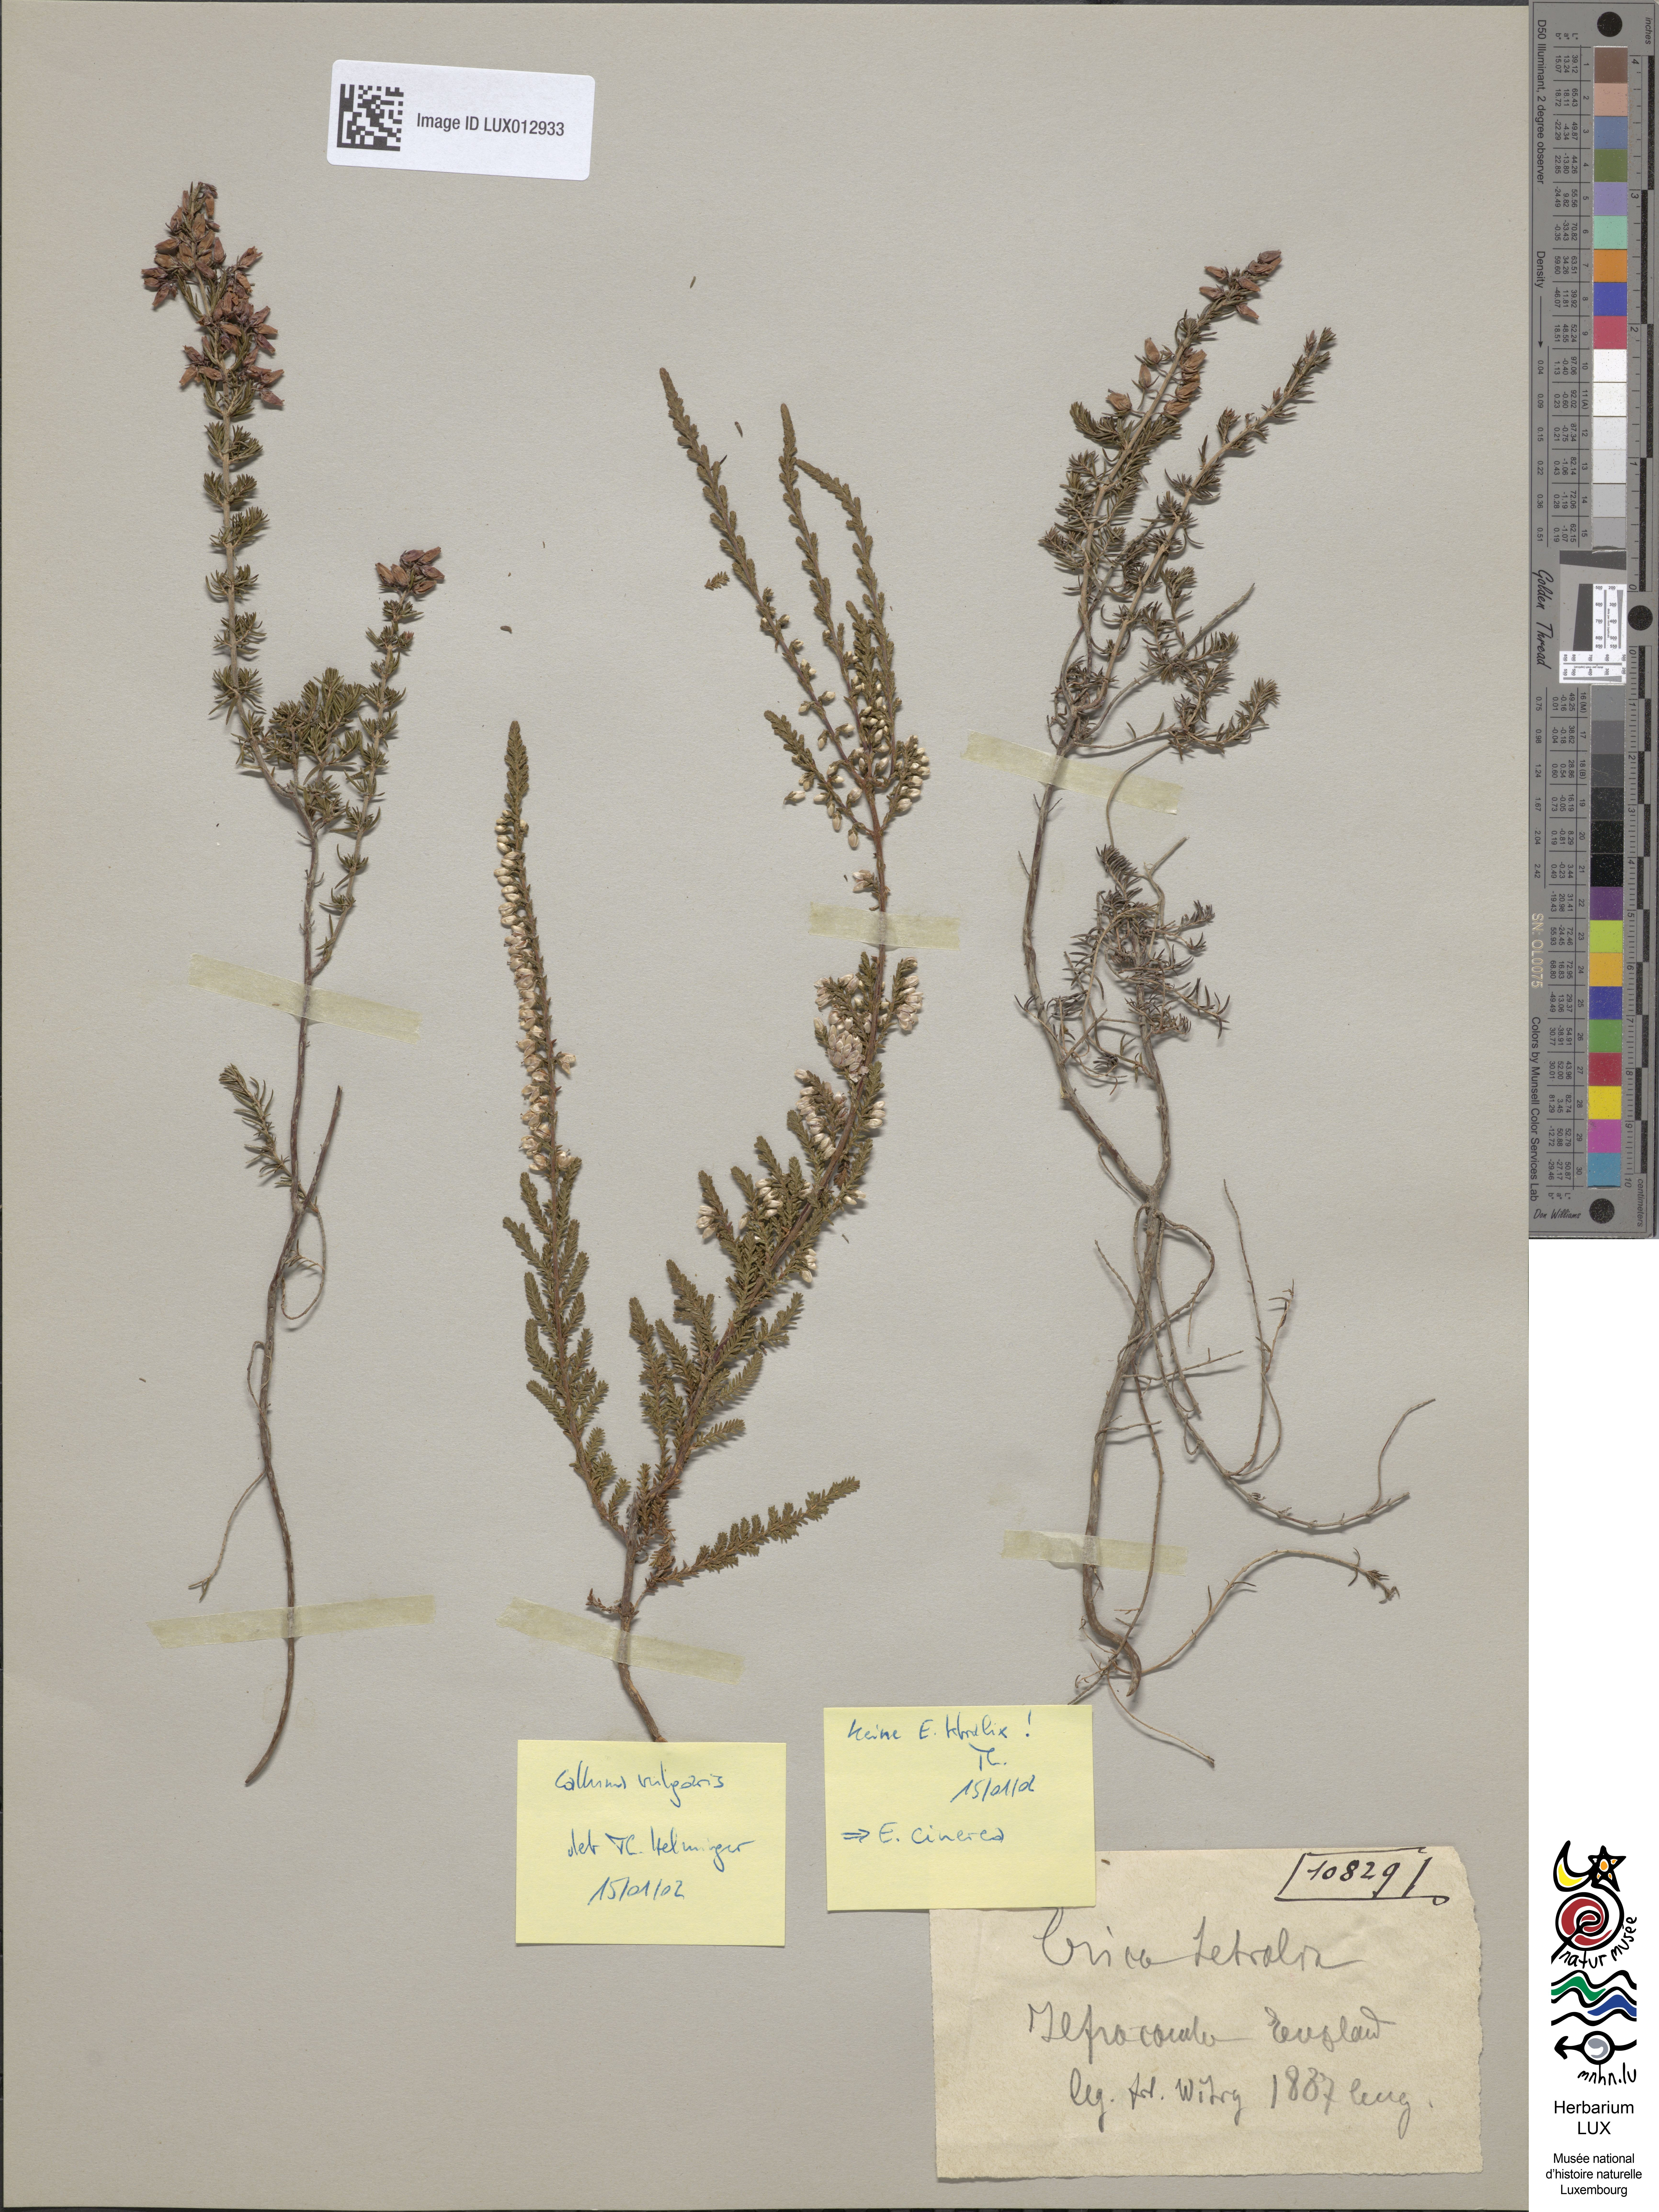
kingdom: Plantae
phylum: Tracheophyta
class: Magnoliopsida
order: Ericales
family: Ericaceae
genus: Erica
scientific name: Erica tetralix
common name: Cross-leaved heath
